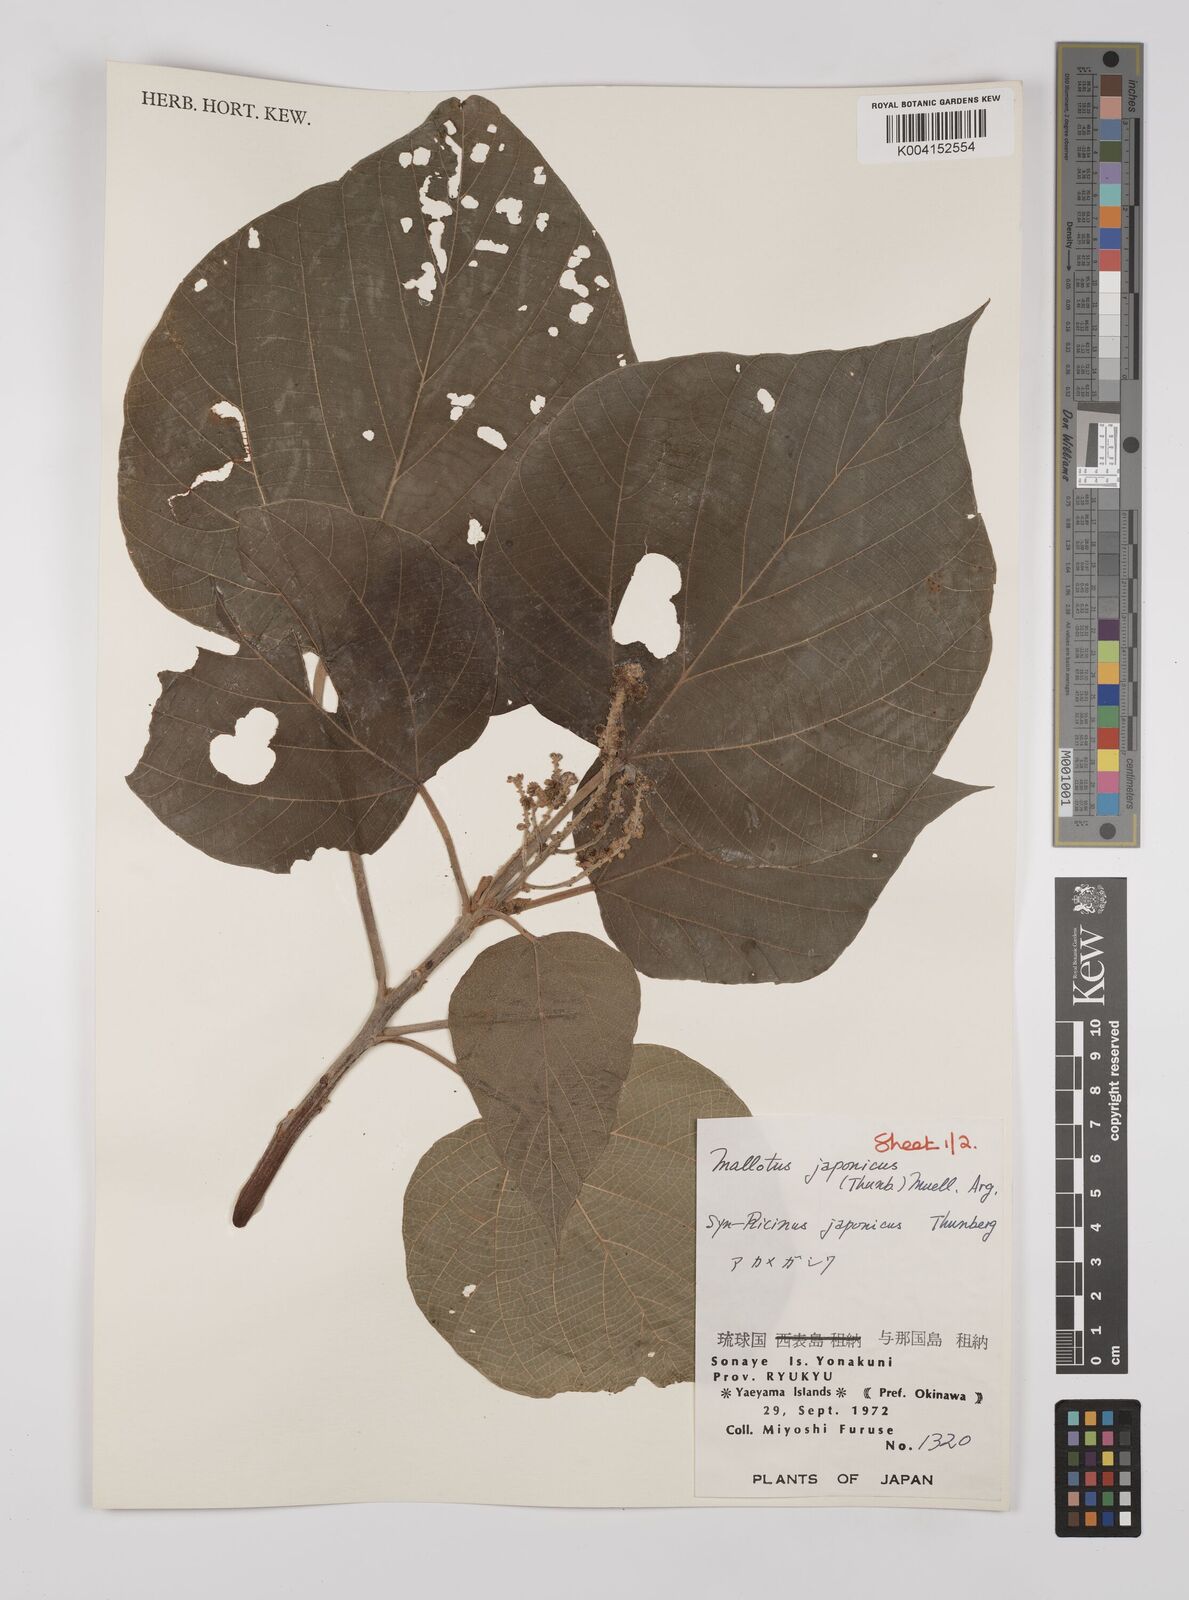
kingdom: Plantae
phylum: Tracheophyta
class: Magnoliopsida
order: Malpighiales
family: Euphorbiaceae
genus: Mallotus
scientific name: Mallotus japonicus
